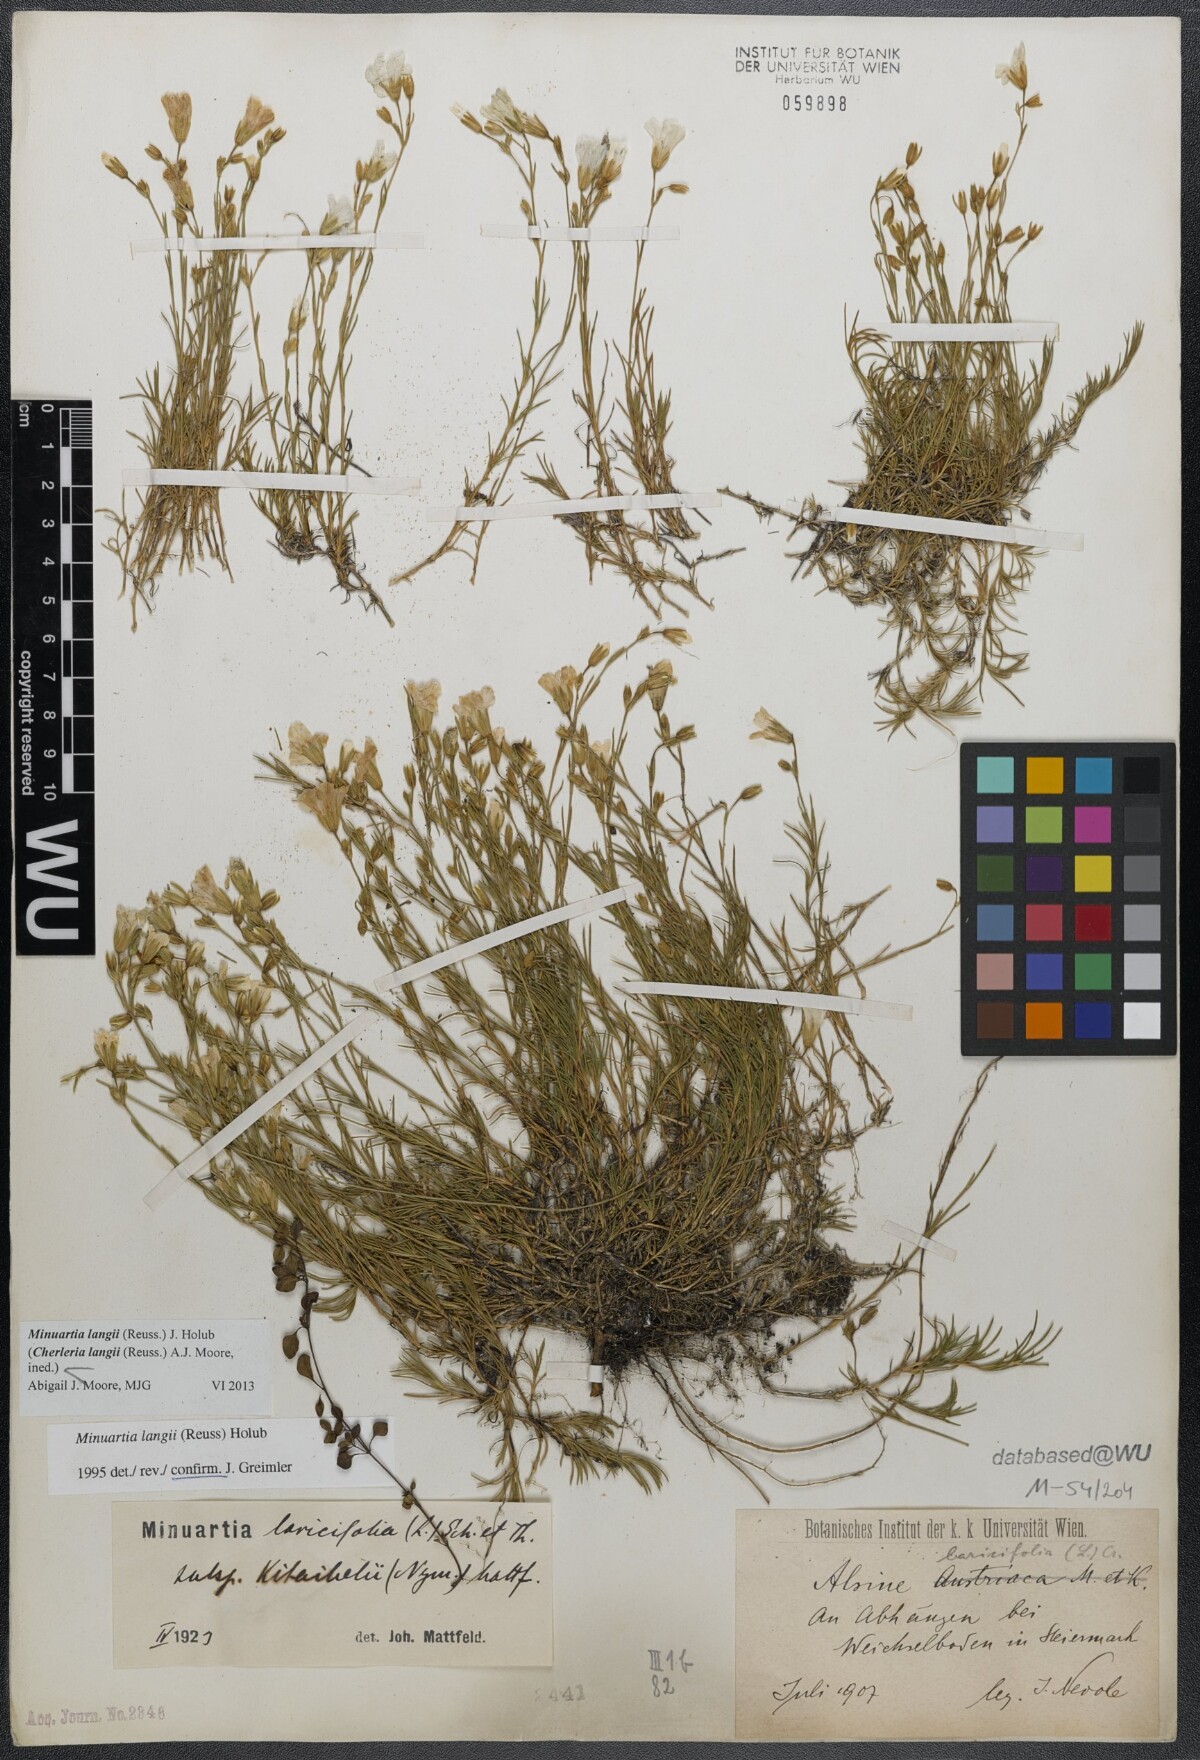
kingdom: Plantae
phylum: Tracheophyta
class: Magnoliopsida
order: Caryophyllales
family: Caryophyllaceae
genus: Cherleria
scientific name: Cherleria langii
